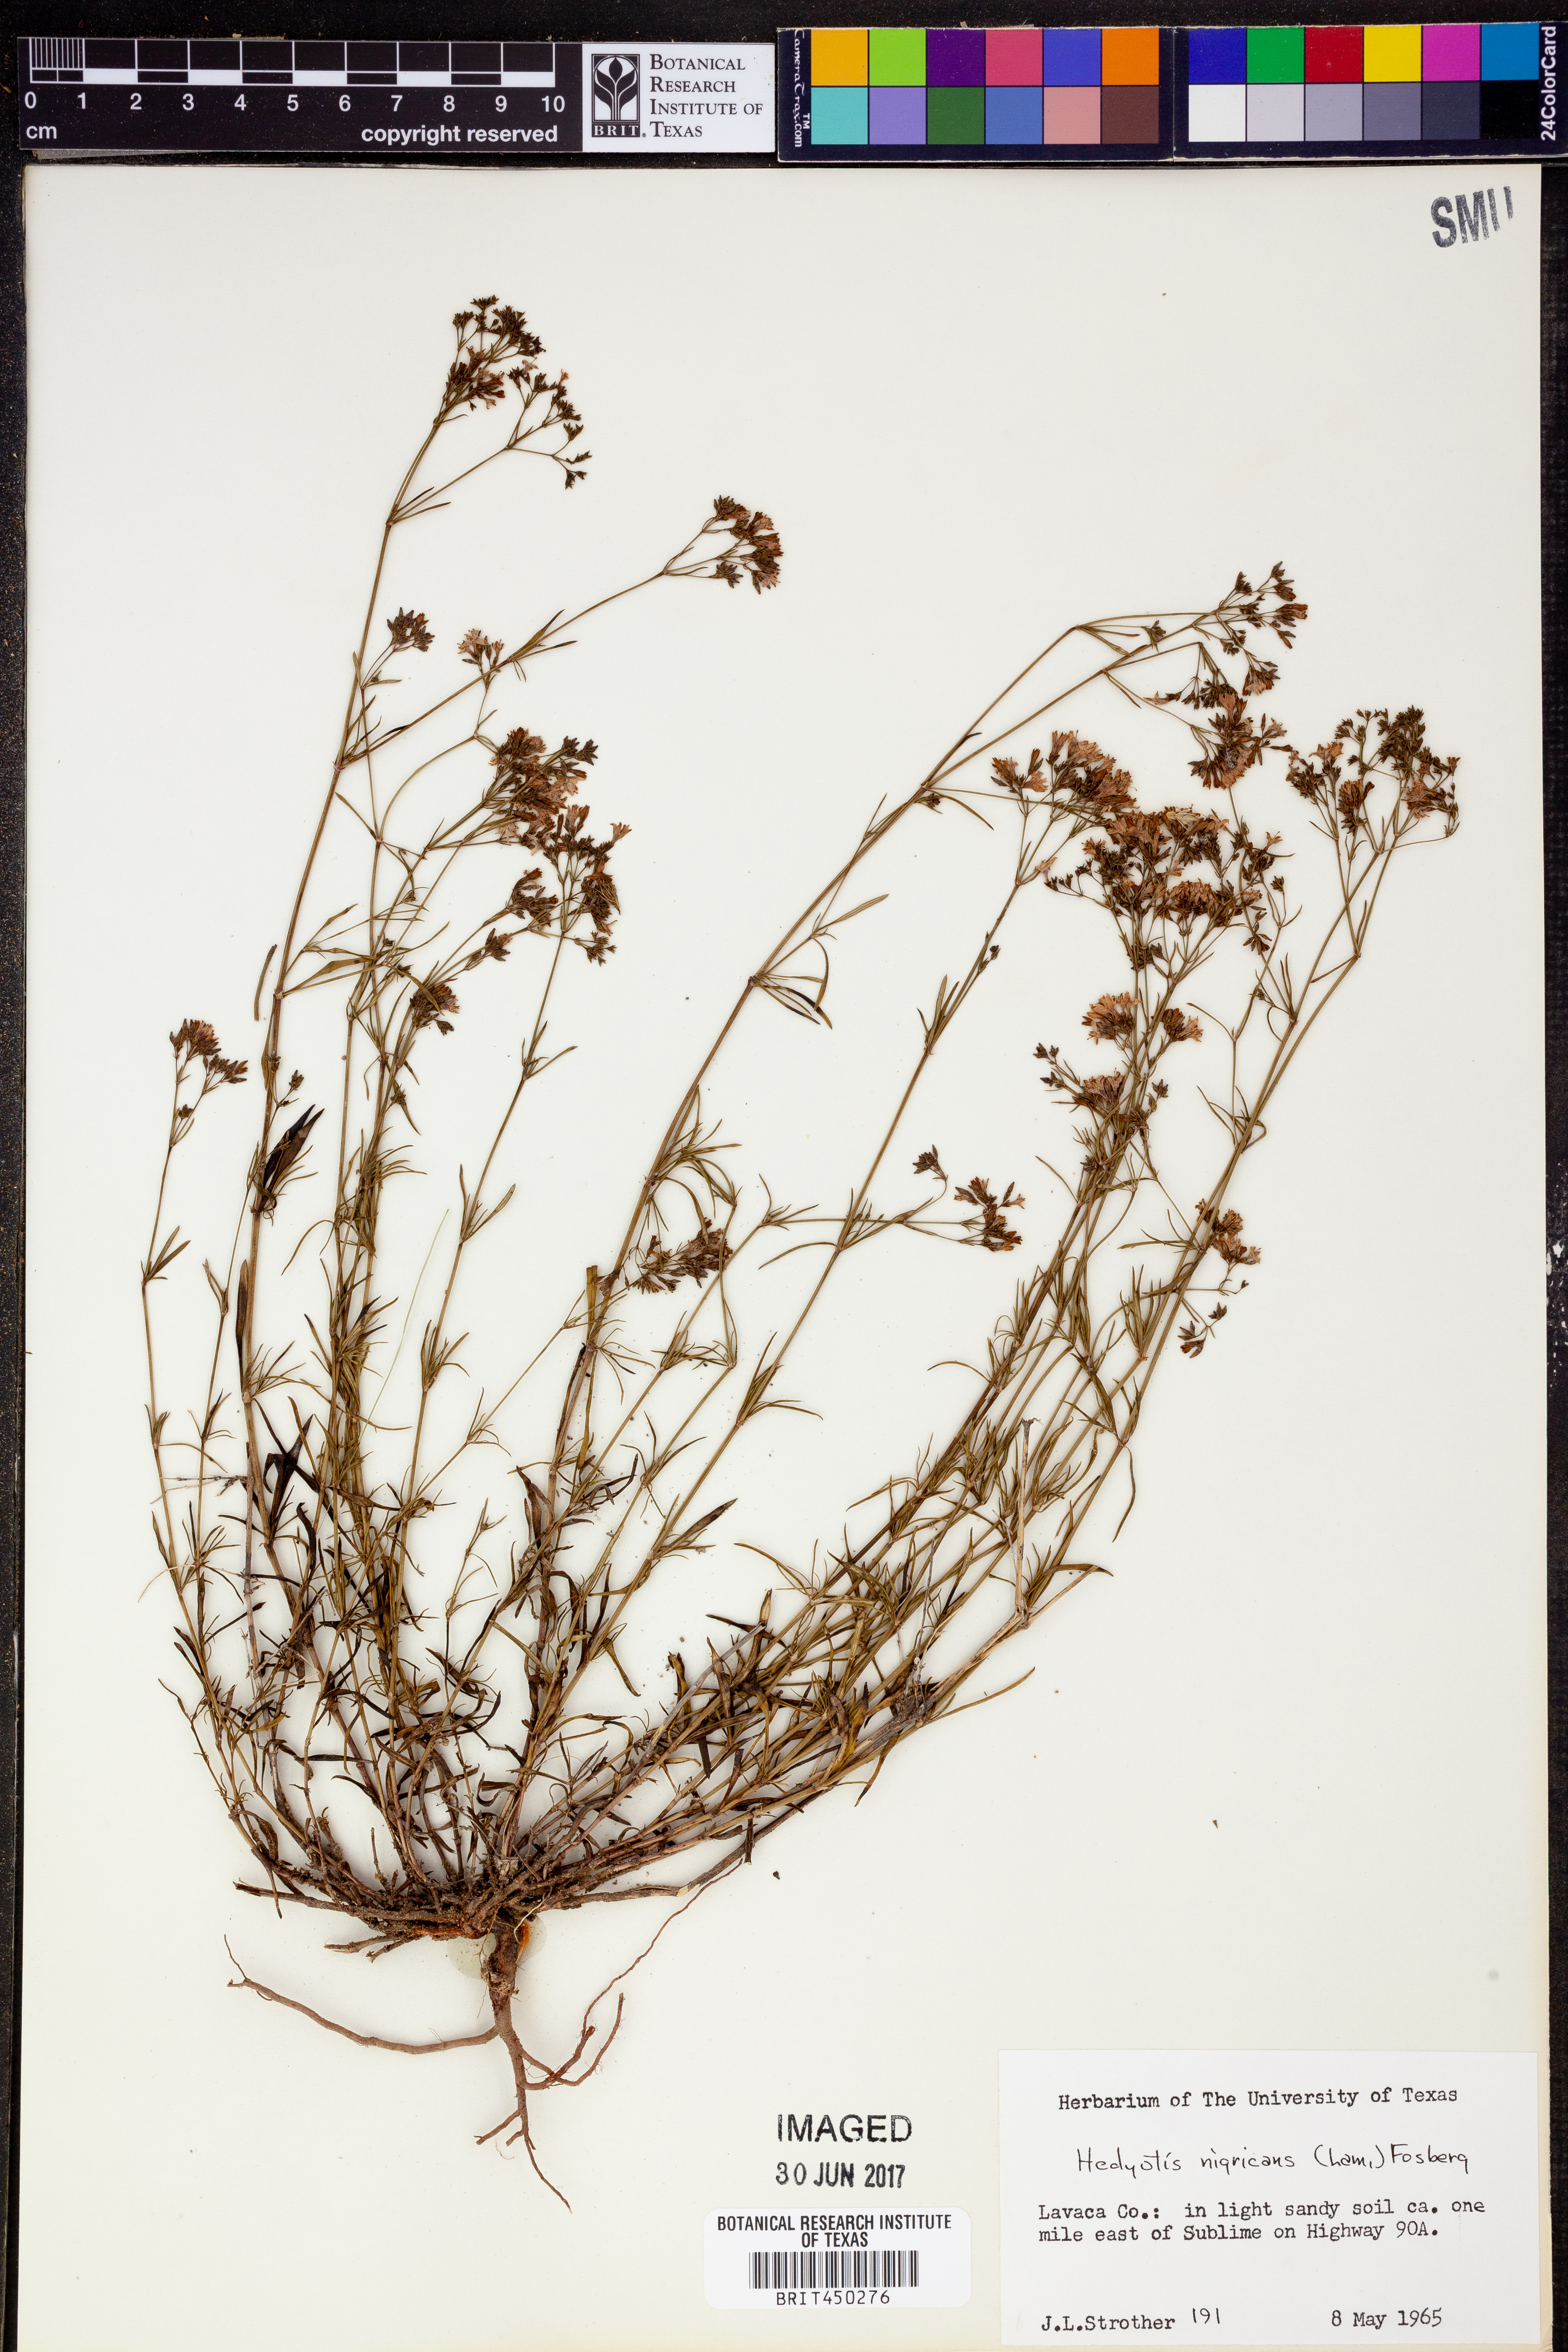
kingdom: Plantae
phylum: Tracheophyta
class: Magnoliopsida
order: Gentianales
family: Rubiaceae
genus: Stenaria
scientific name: Stenaria nigricans
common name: Diamondflowers
